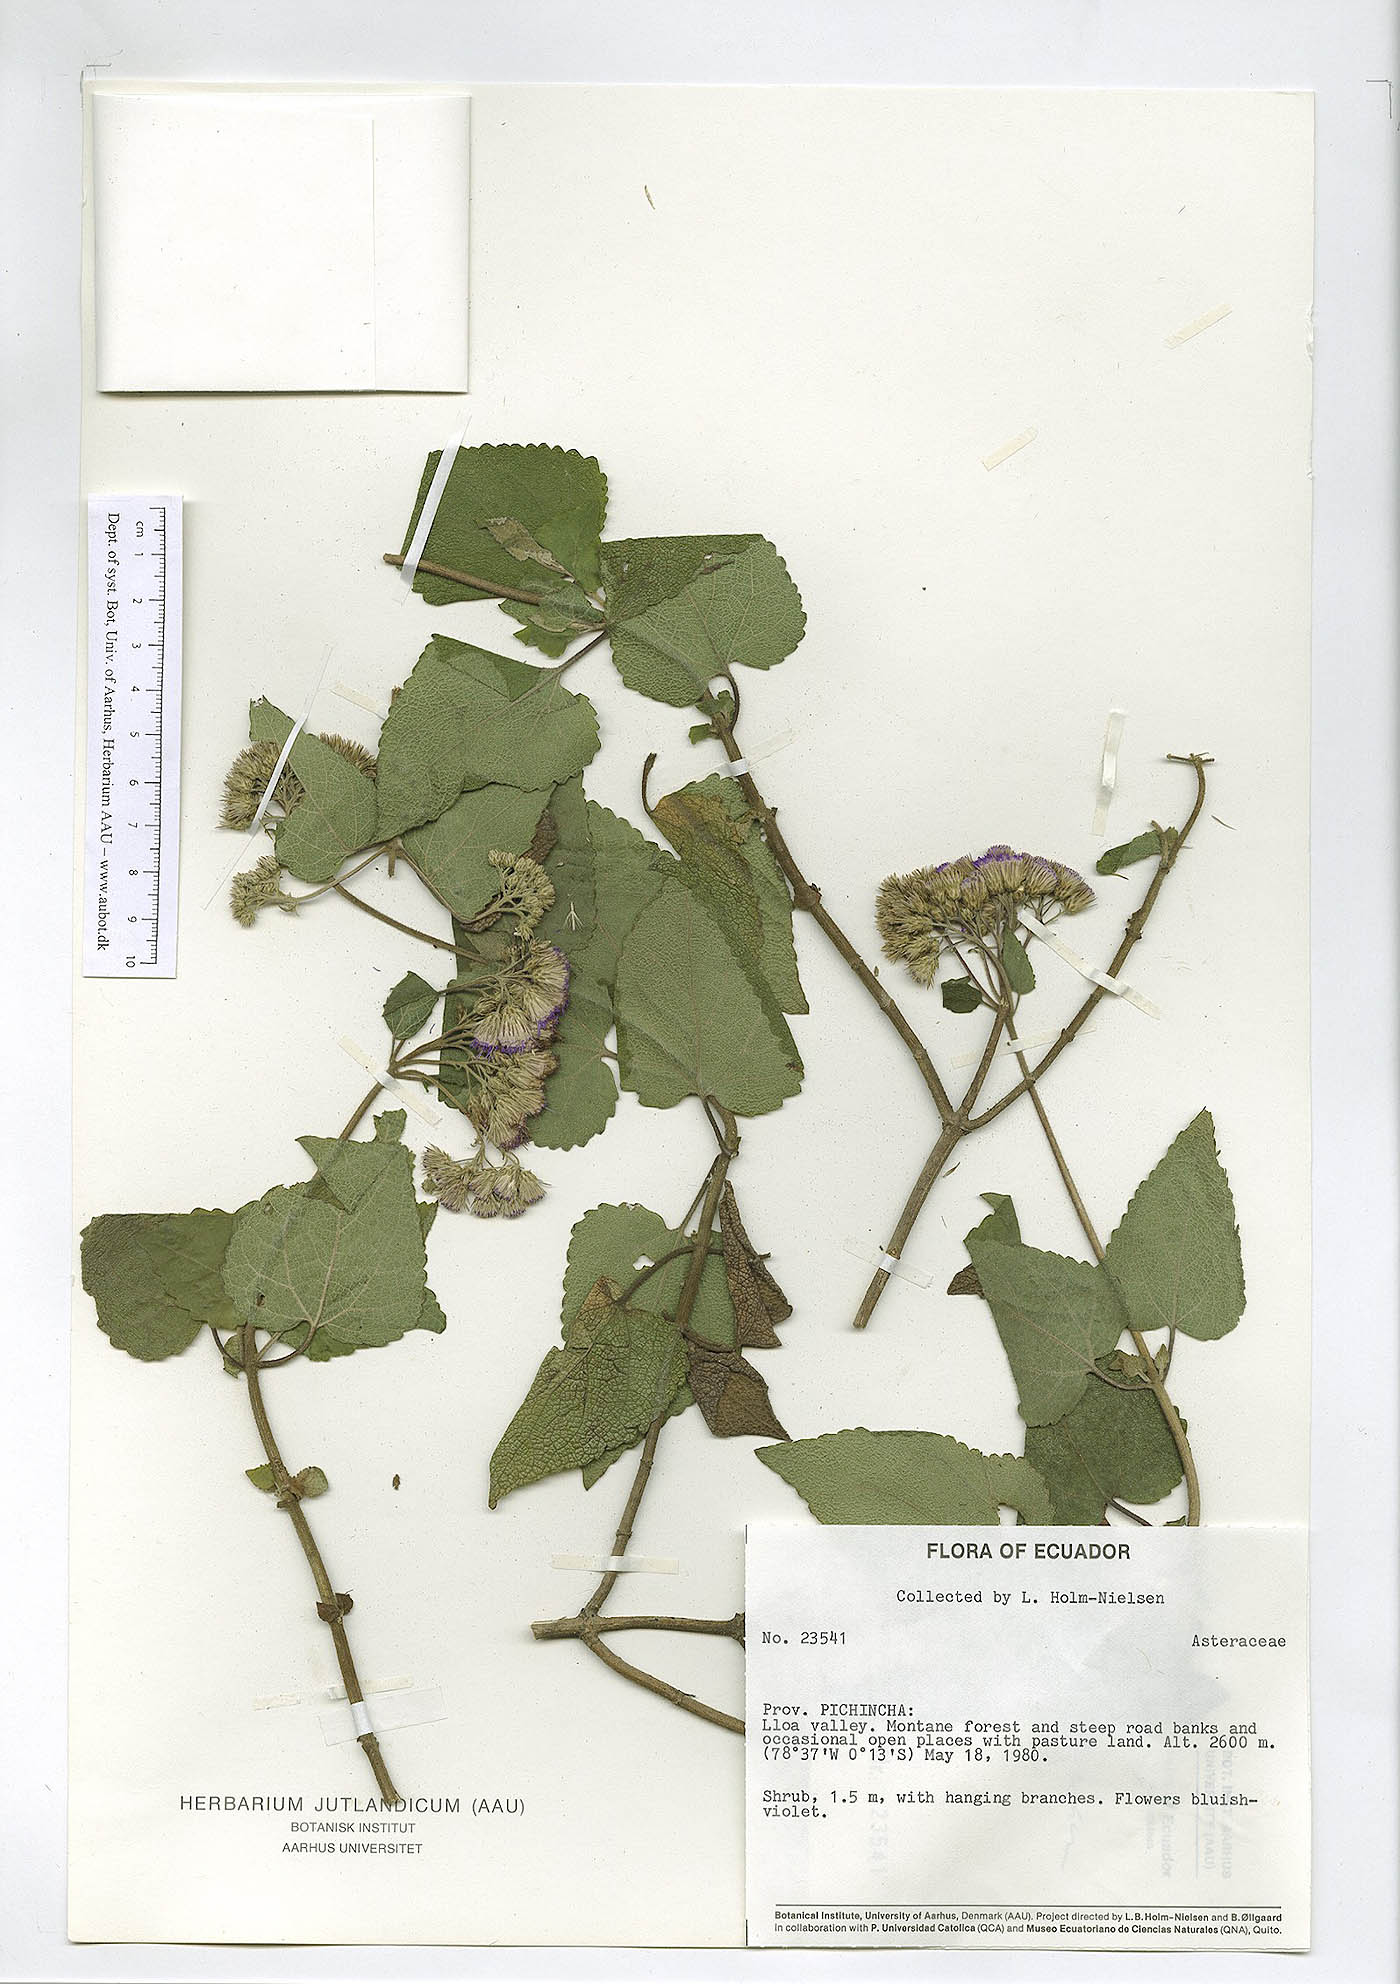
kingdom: Plantae
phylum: Tracheophyta
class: Magnoliopsida
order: Asterales
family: Asteraceae
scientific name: Asteraceae
